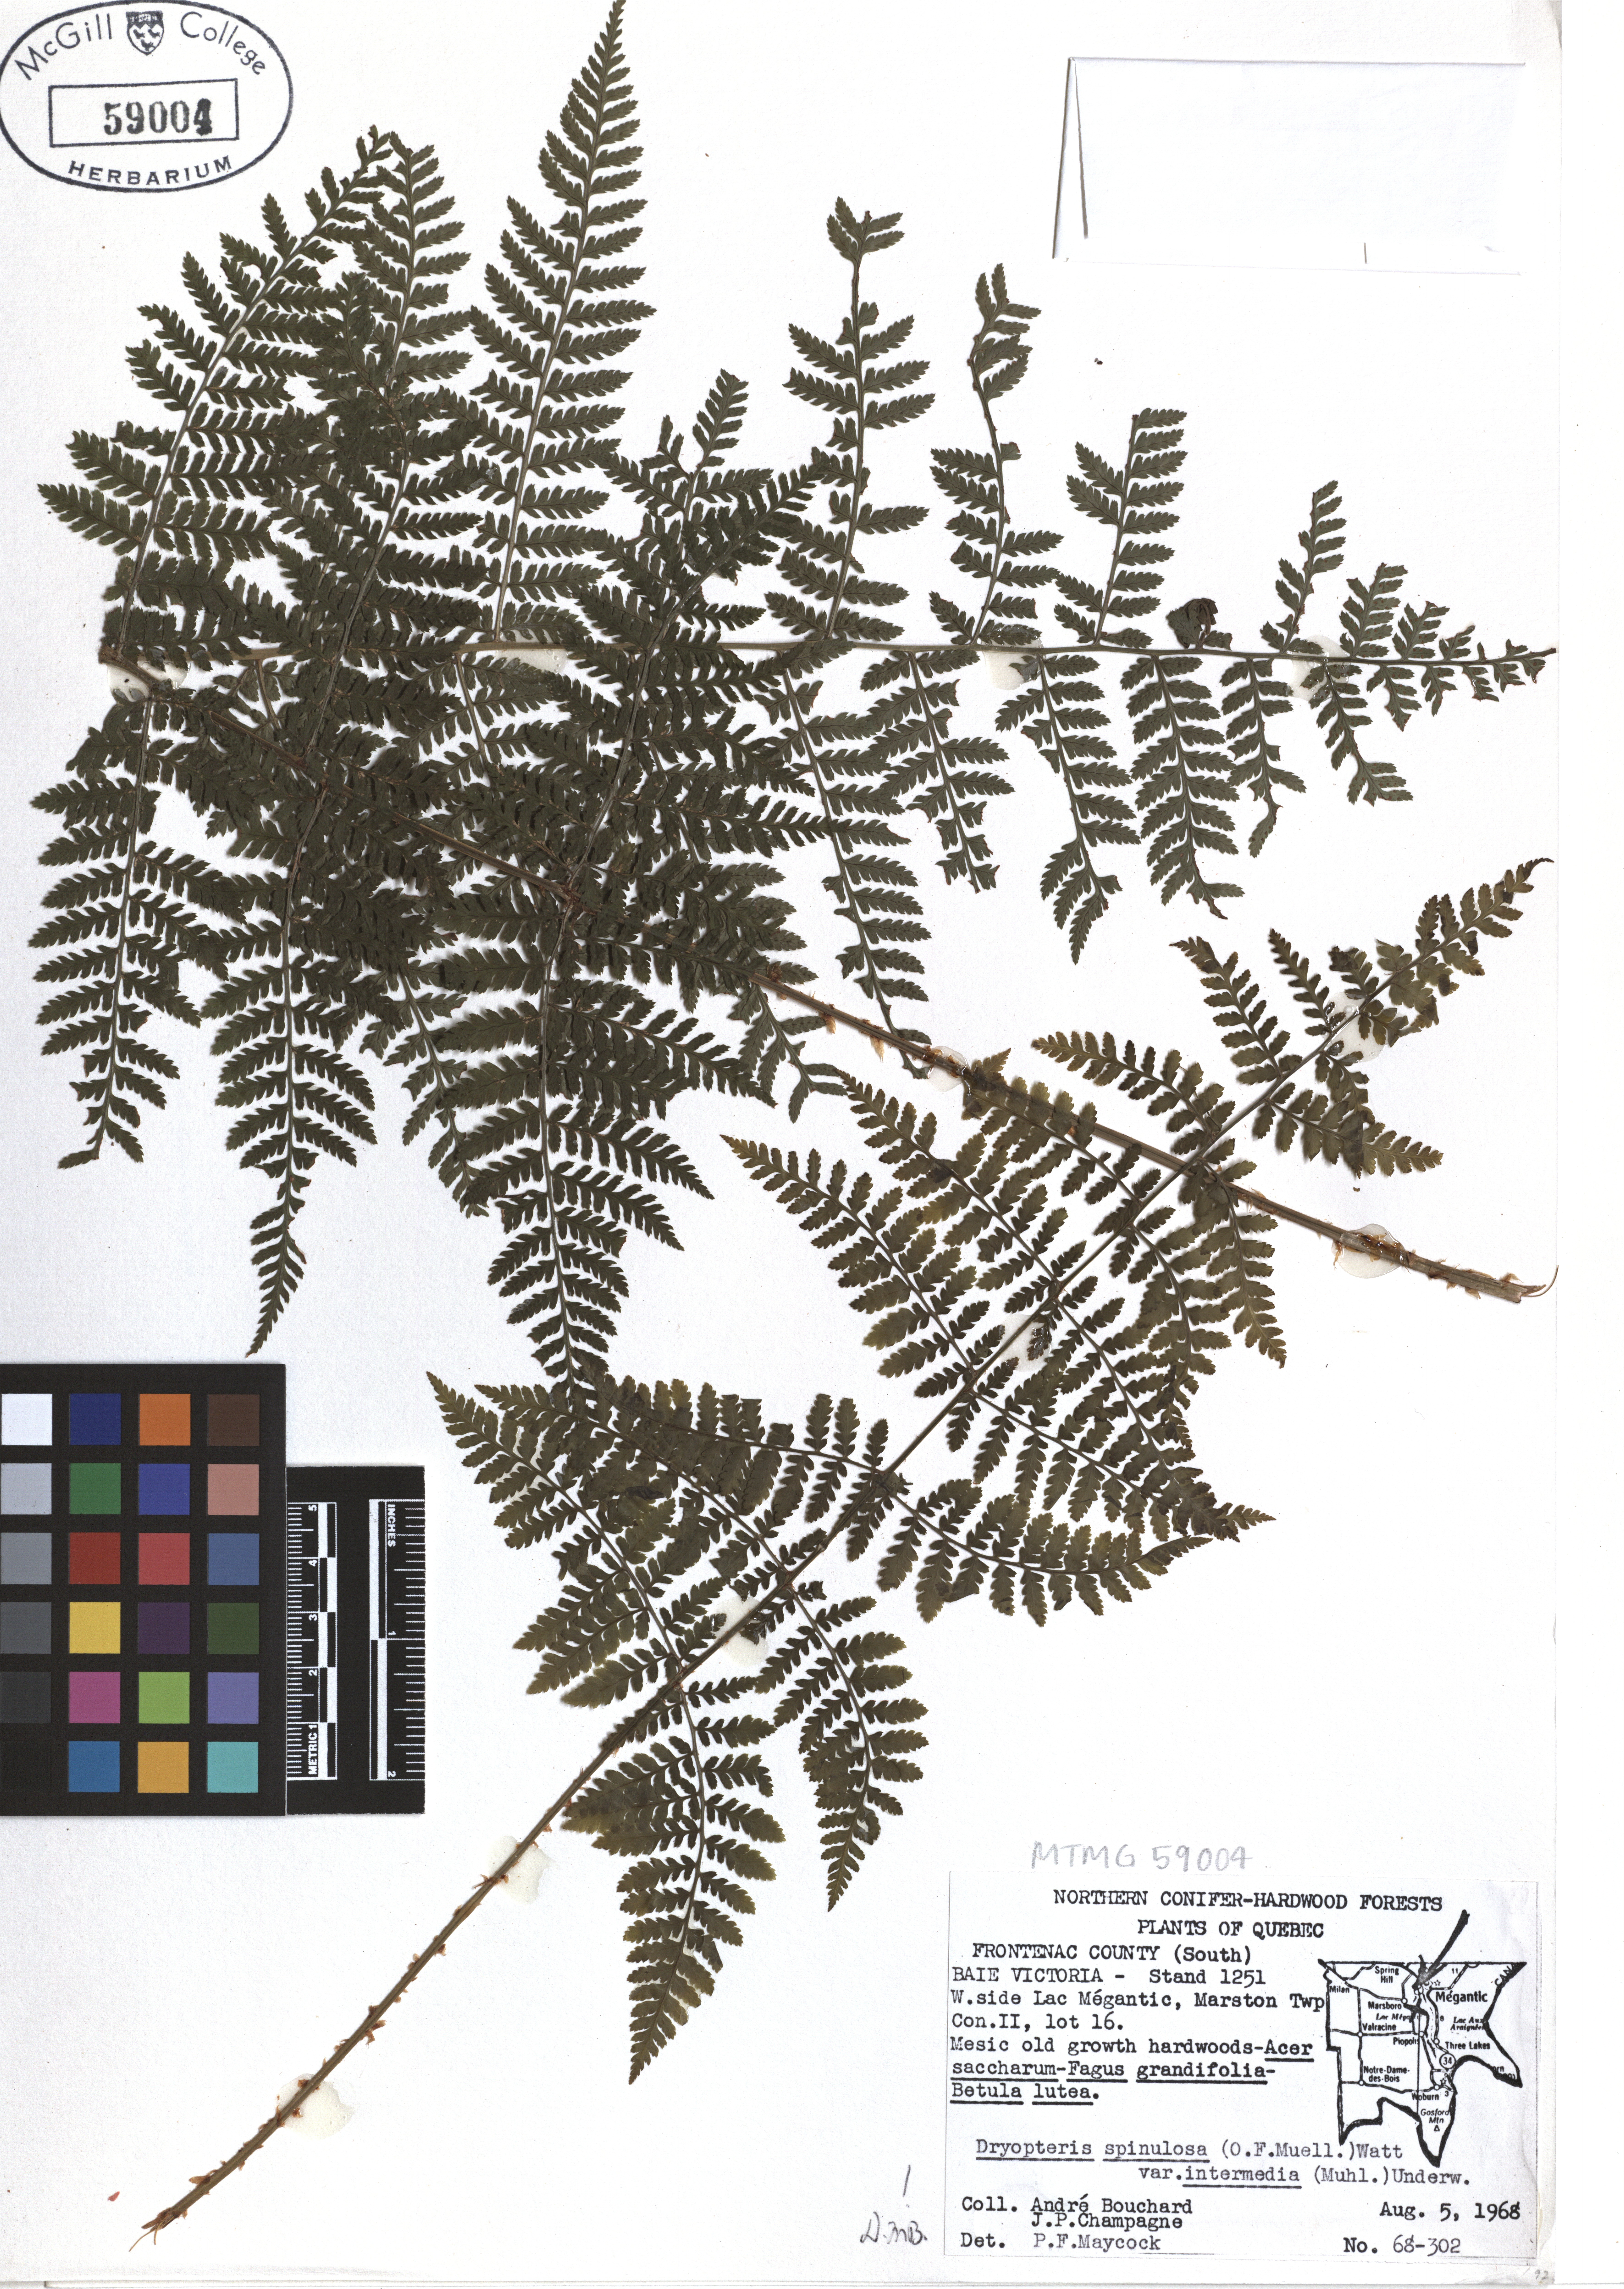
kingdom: Plantae
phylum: Tracheophyta
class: Polypodiopsida
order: Polypodiales
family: Dryopteridaceae
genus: Dryopteris
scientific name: Dryopteris intermedia
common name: Evergreen wood fern
